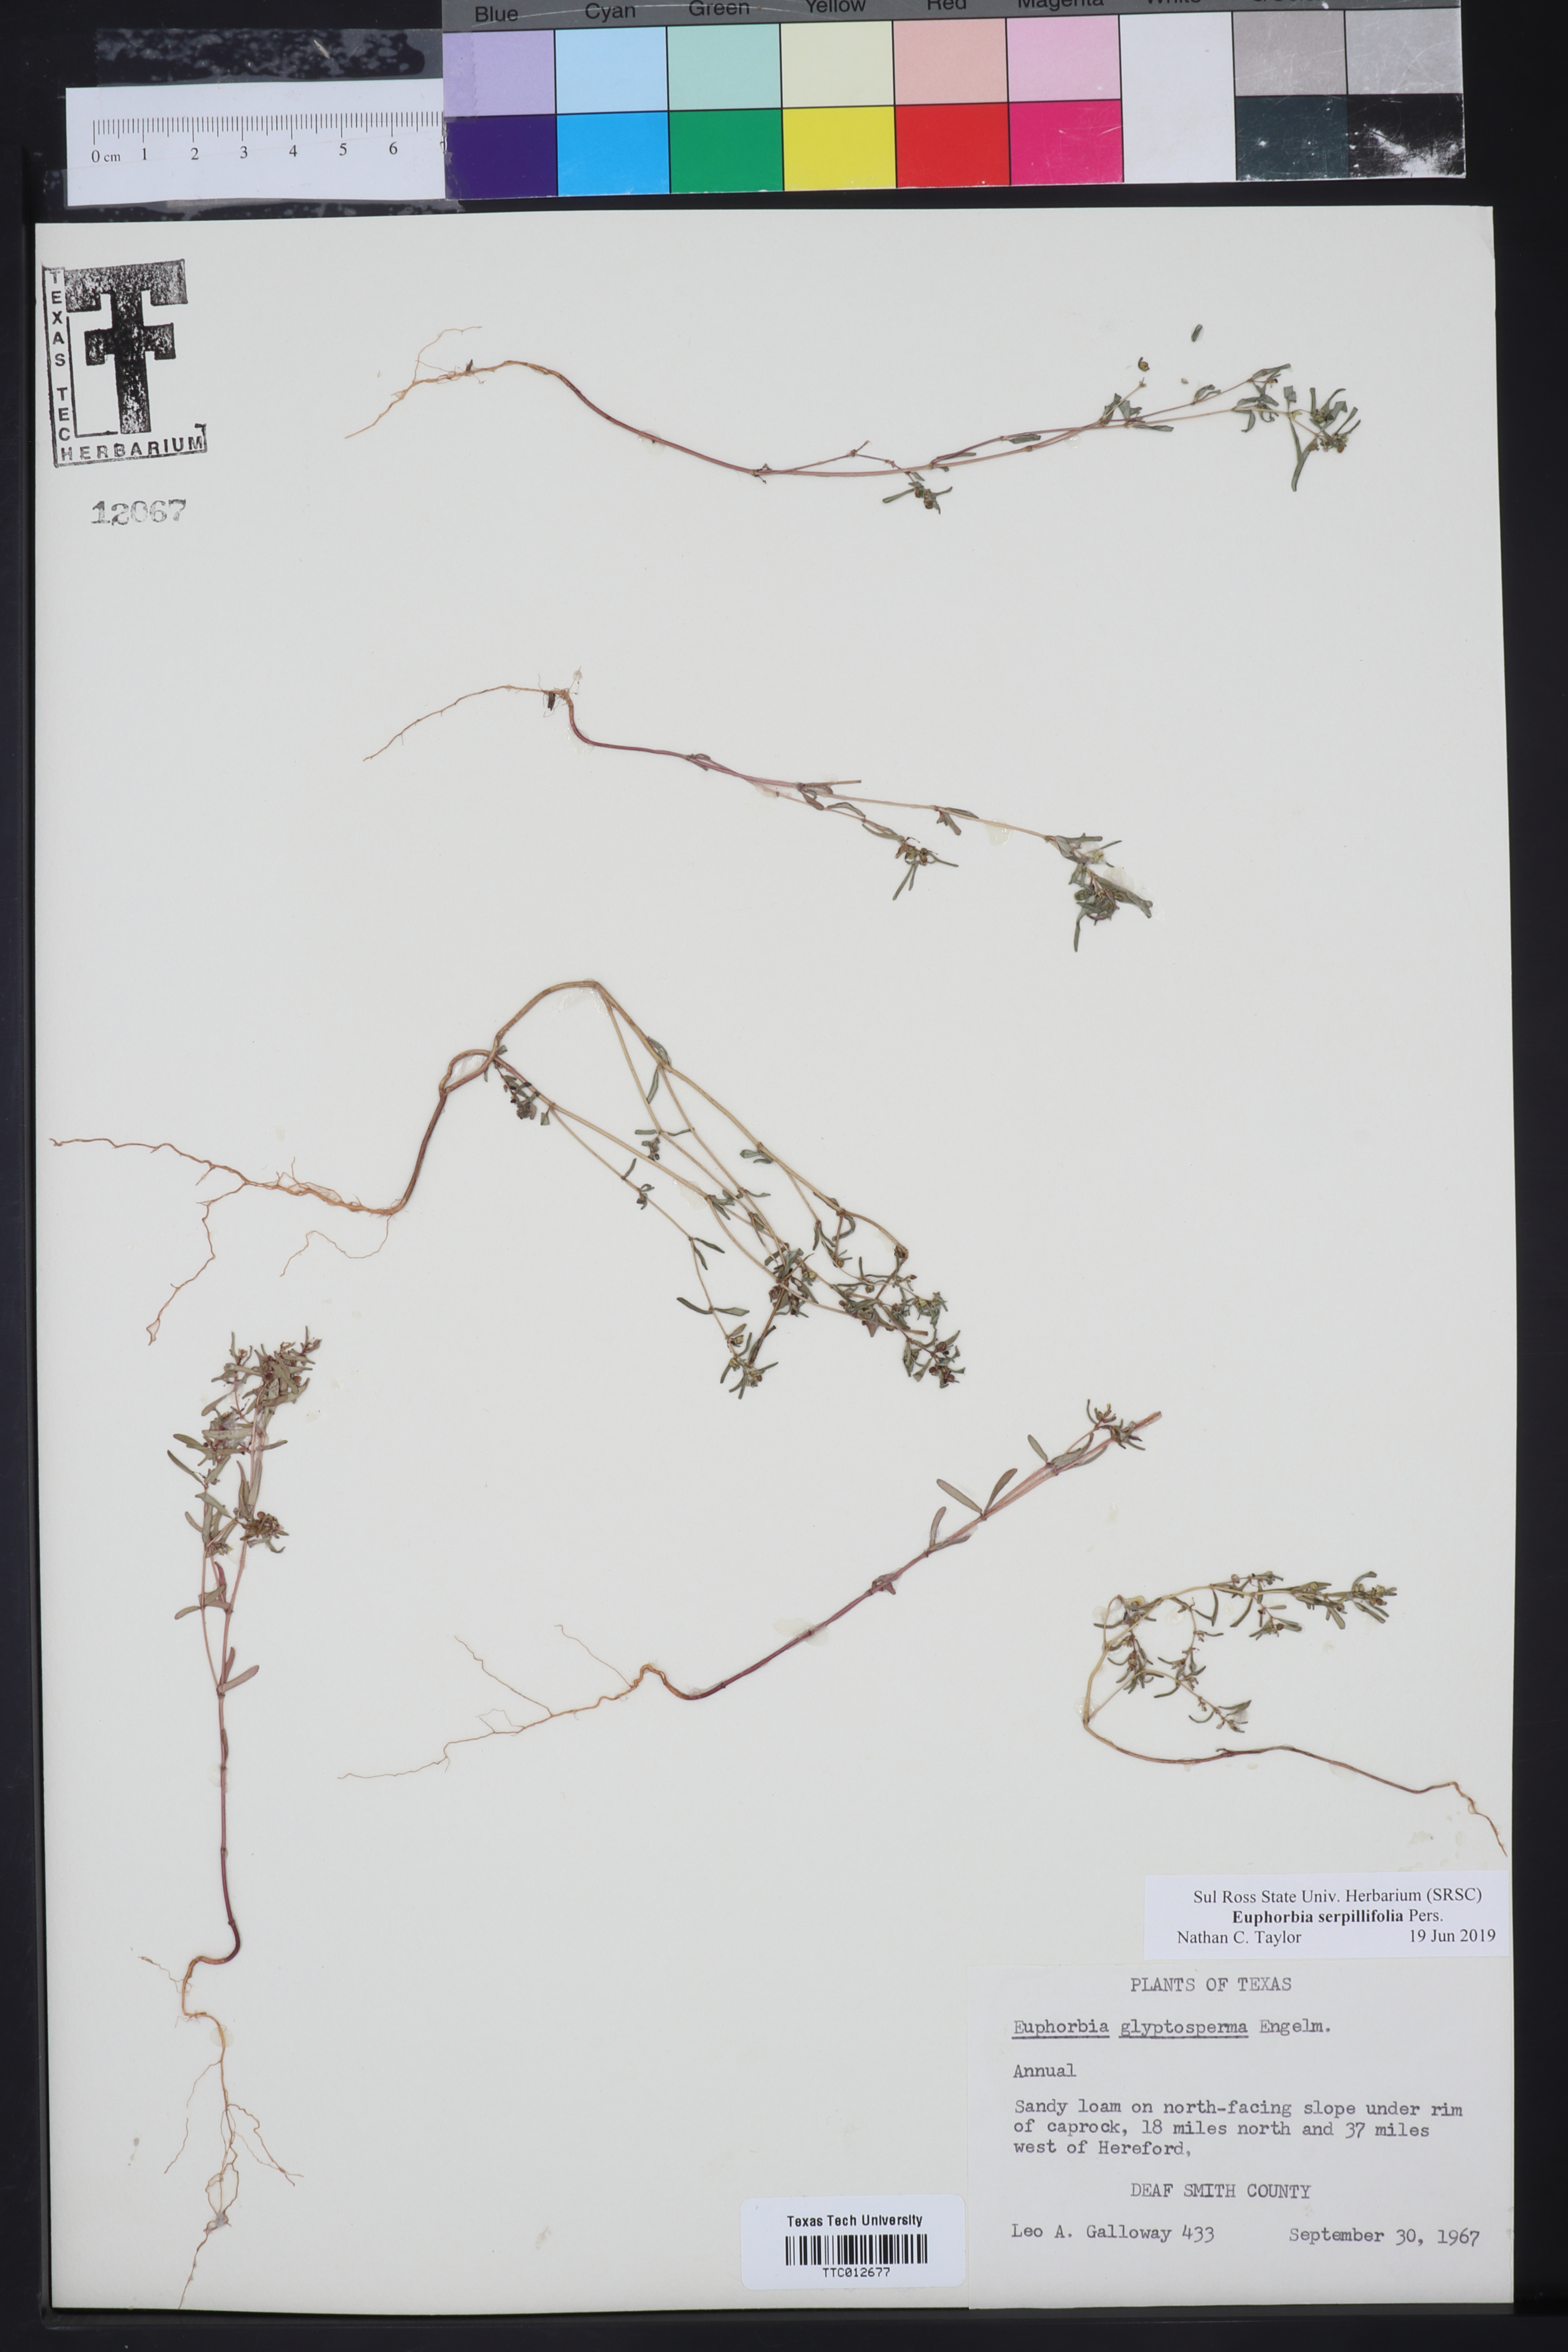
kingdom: Plantae
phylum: Tracheophyta
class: Magnoliopsida
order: Malpighiales
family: Euphorbiaceae
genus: Euphorbia
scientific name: Euphorbia serpillifolia
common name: Thyme-leaf spurge
